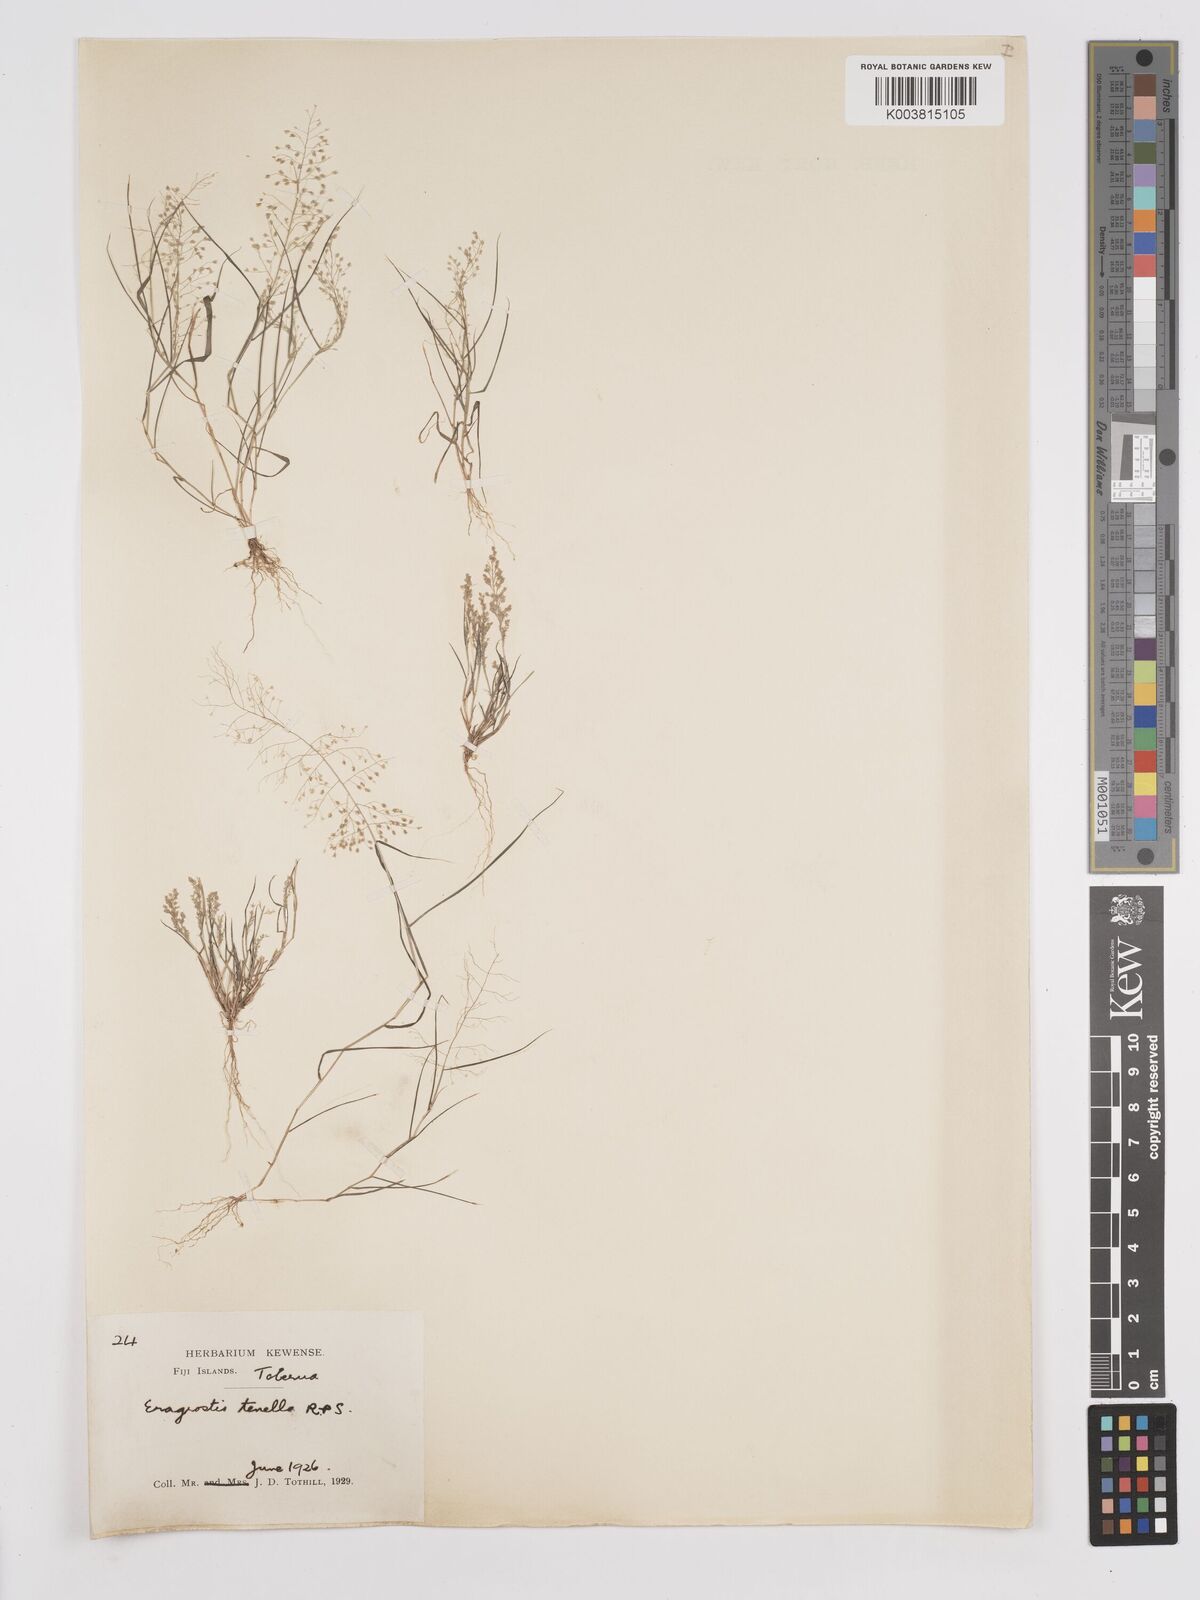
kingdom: Plantae
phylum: Tracheophyta
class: Liliopsida
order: Poales
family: Poaceae
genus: Eragrostis
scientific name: Eragrostis tenella
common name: Japanese lovegrass
